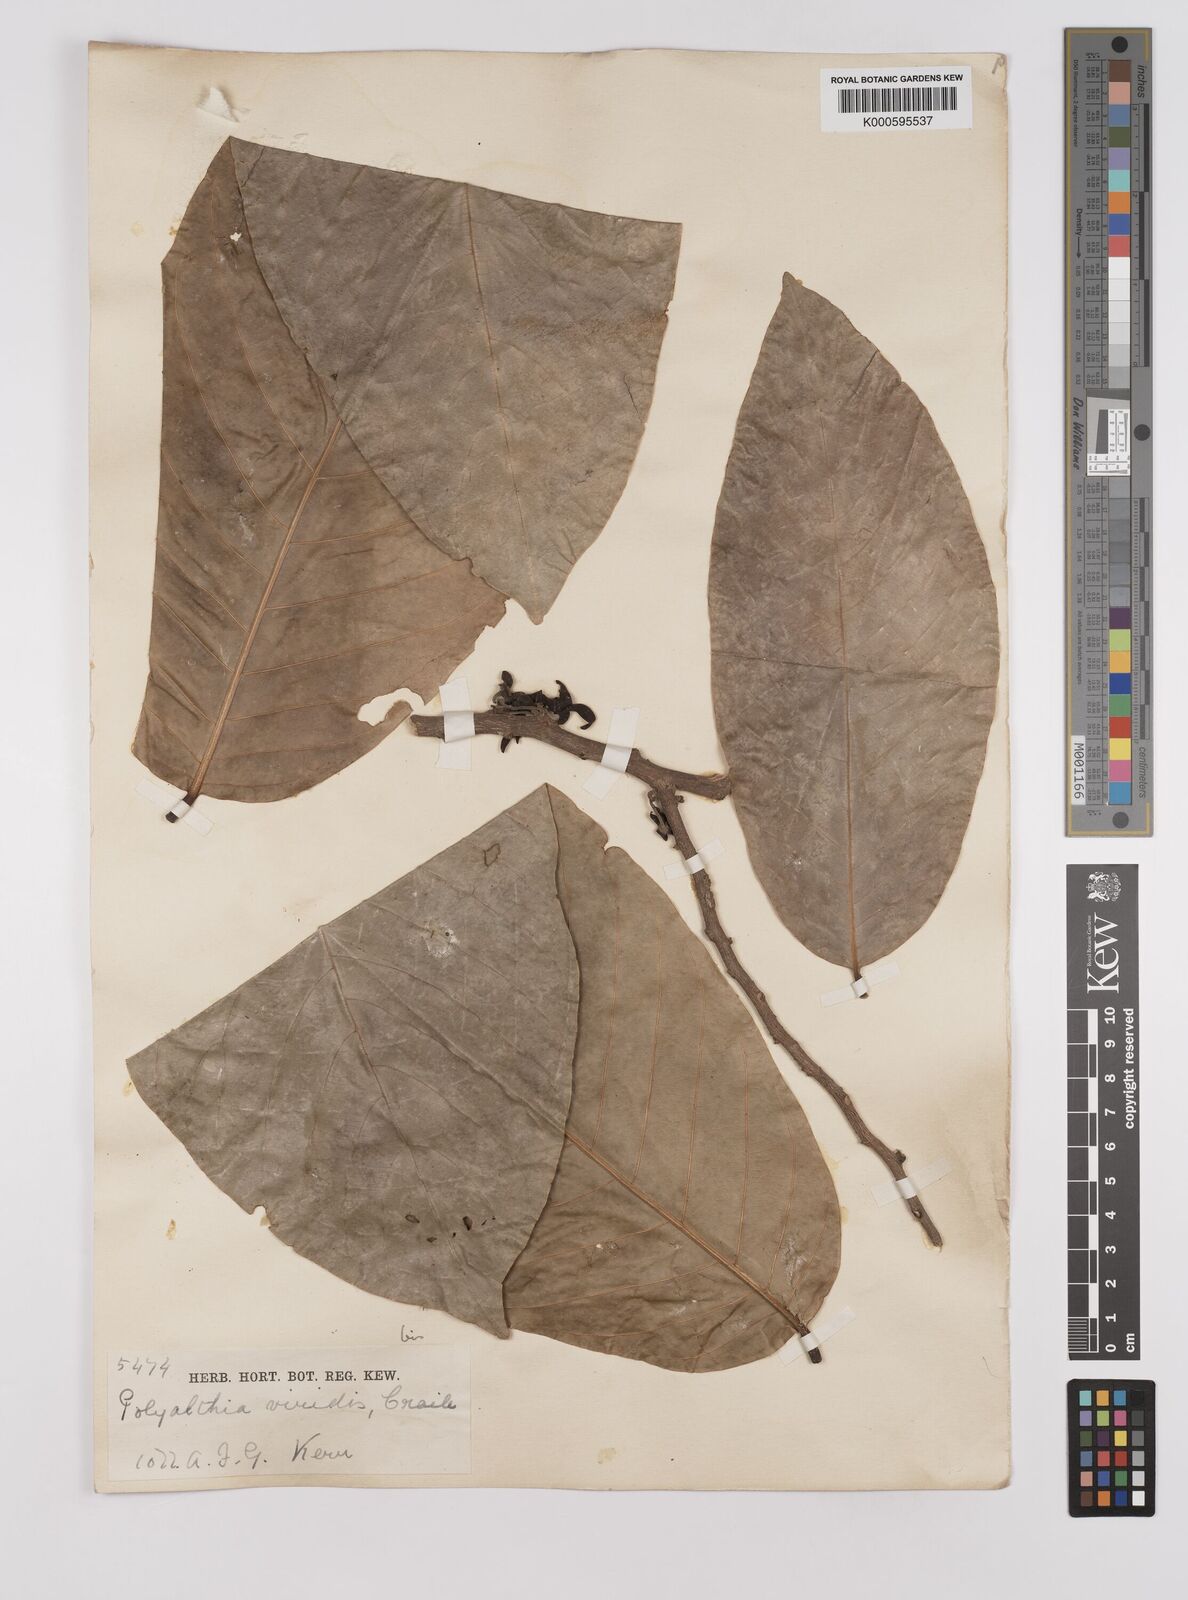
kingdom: Plantae
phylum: Tracheophyta
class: Magnoliopsida
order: Magnoliales
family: Annonaceae
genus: Polyalthia
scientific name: Polyalthia viridis
